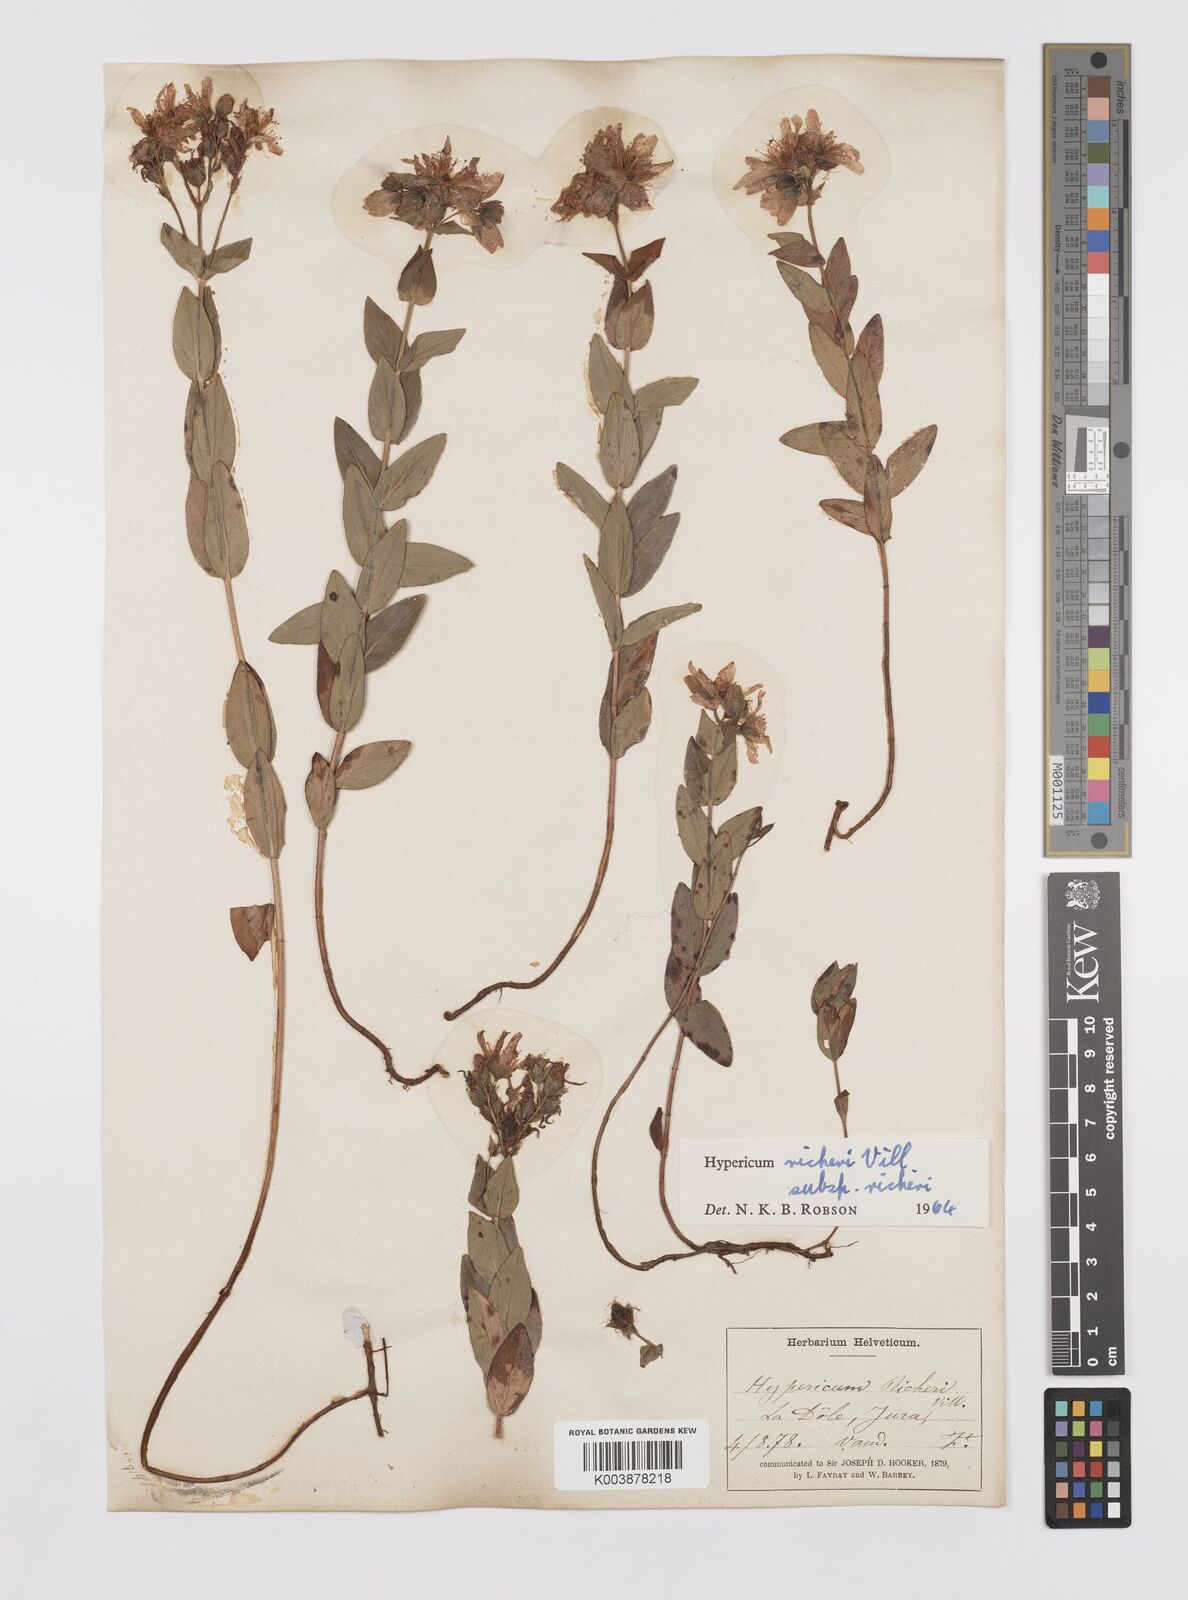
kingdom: Plantae
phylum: Tracheophyta
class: Magnoliopsida
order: Malpighiales
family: Hypericaceae
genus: Hypericum
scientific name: Hypericum richeri
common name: Alpine st john's-wort
